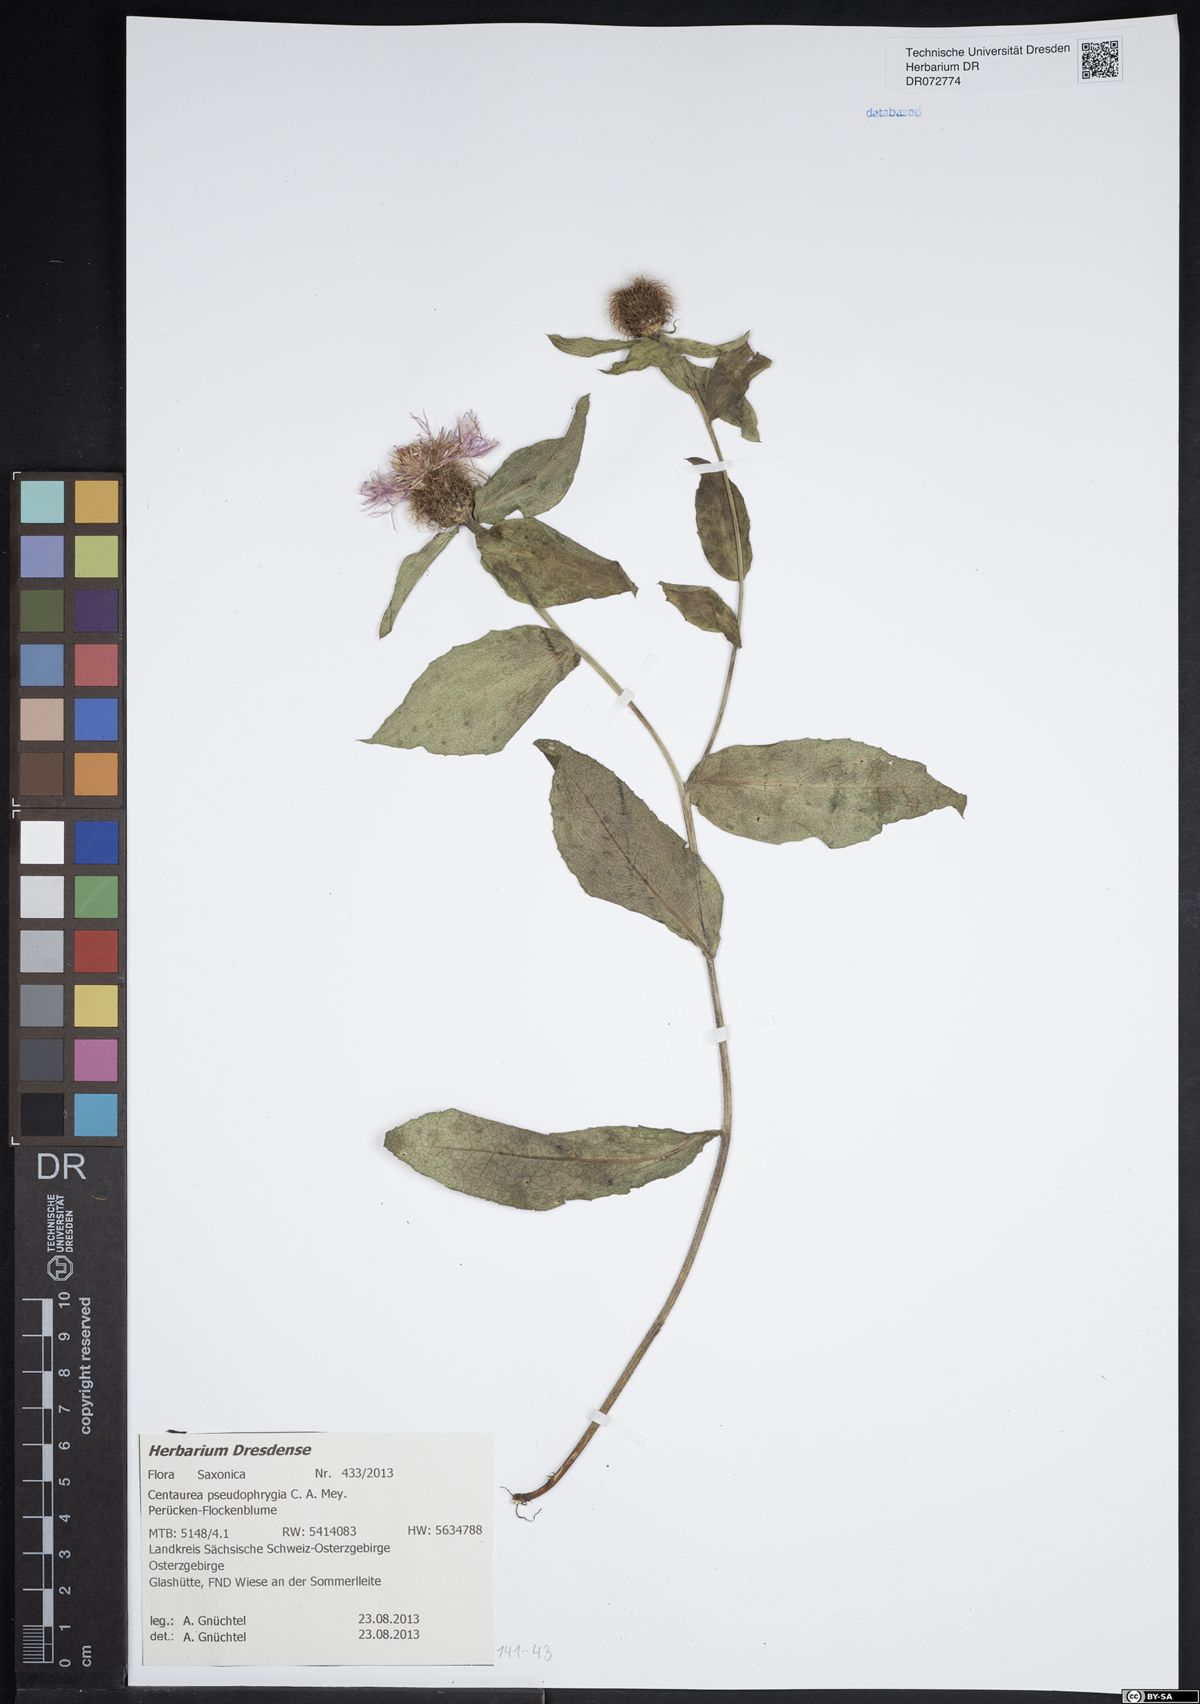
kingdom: Plantae
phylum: Tracheophyta
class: Magnoliopsida
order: Asterales
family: Asteraceae
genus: Centaurea
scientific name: Centaurea pseudophrygia
